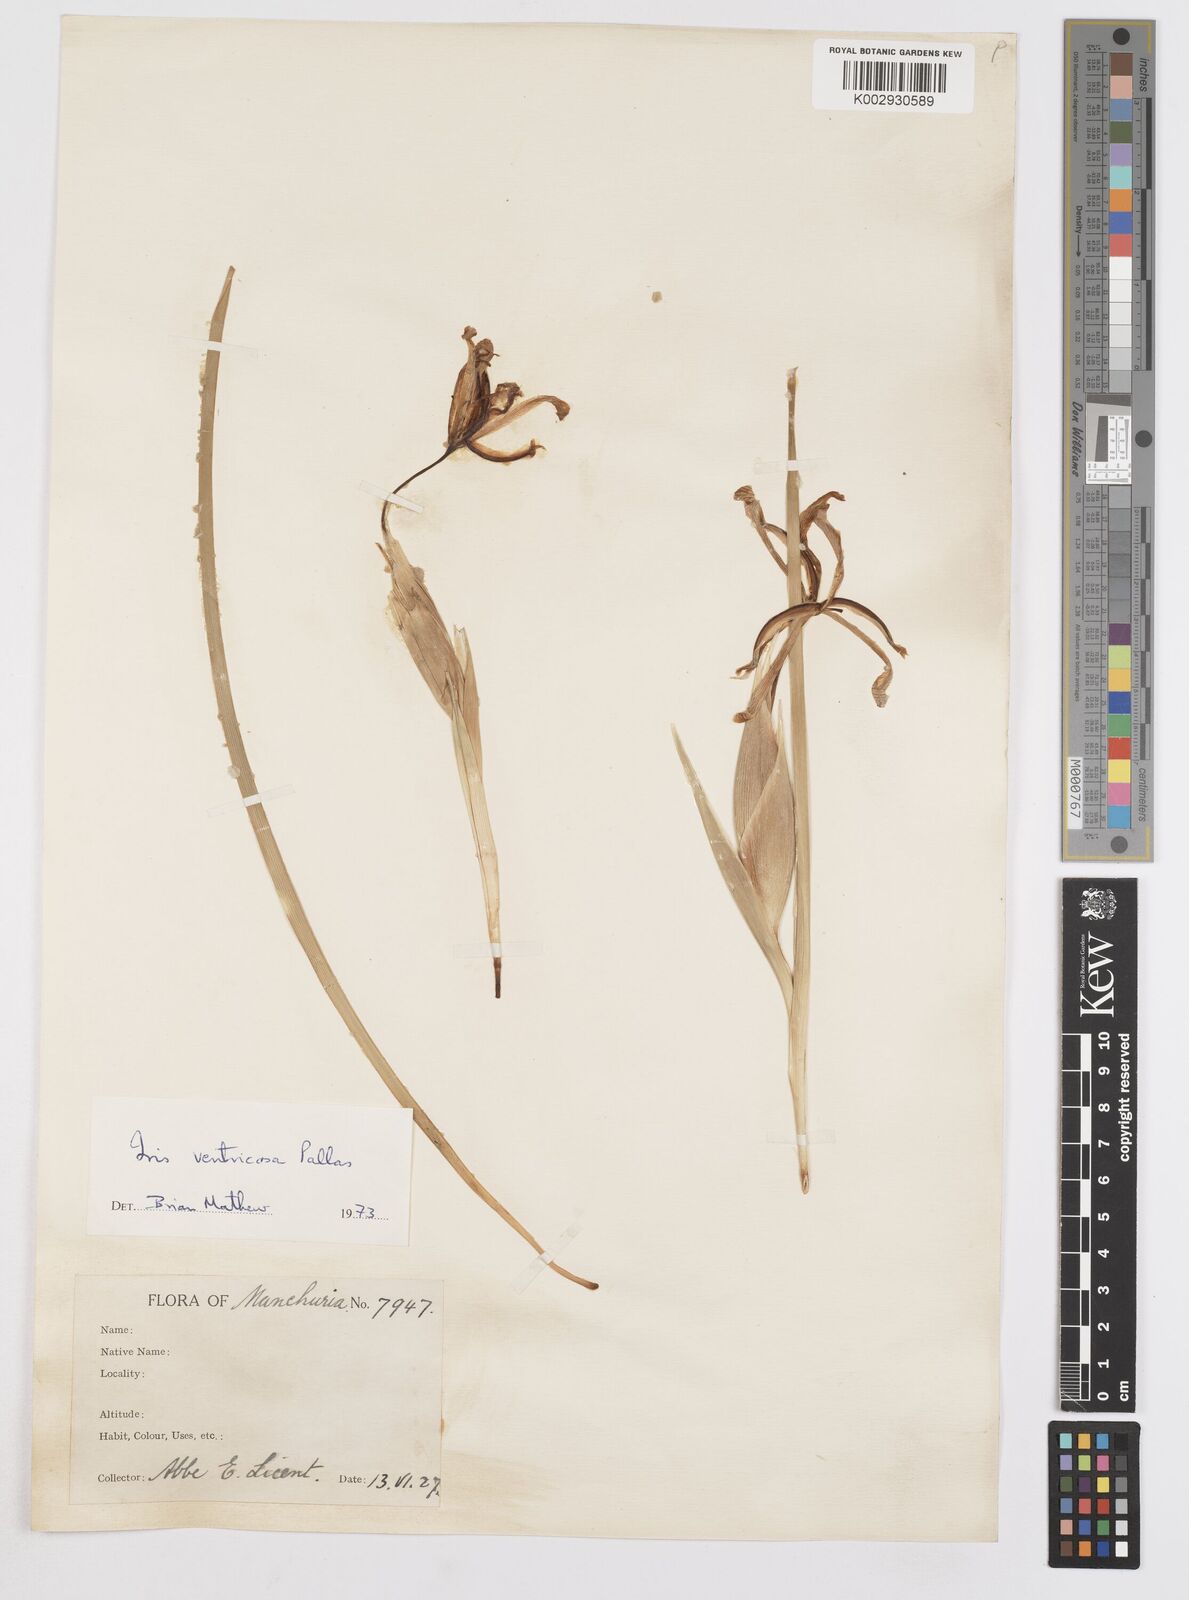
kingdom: Plantae
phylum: Tracheophyta
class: Liliopsida
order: Asparagales
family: Iridaceae
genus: Iris
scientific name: Iris ventricosa
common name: Purple-flower iris
